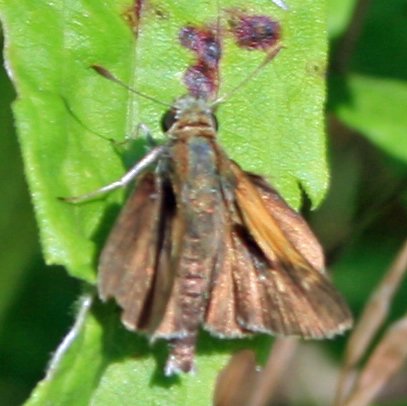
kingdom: Animalia
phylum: Arthropoda
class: Insecta
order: Lepidoptera
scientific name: Lepidoptera
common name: Butterflies
